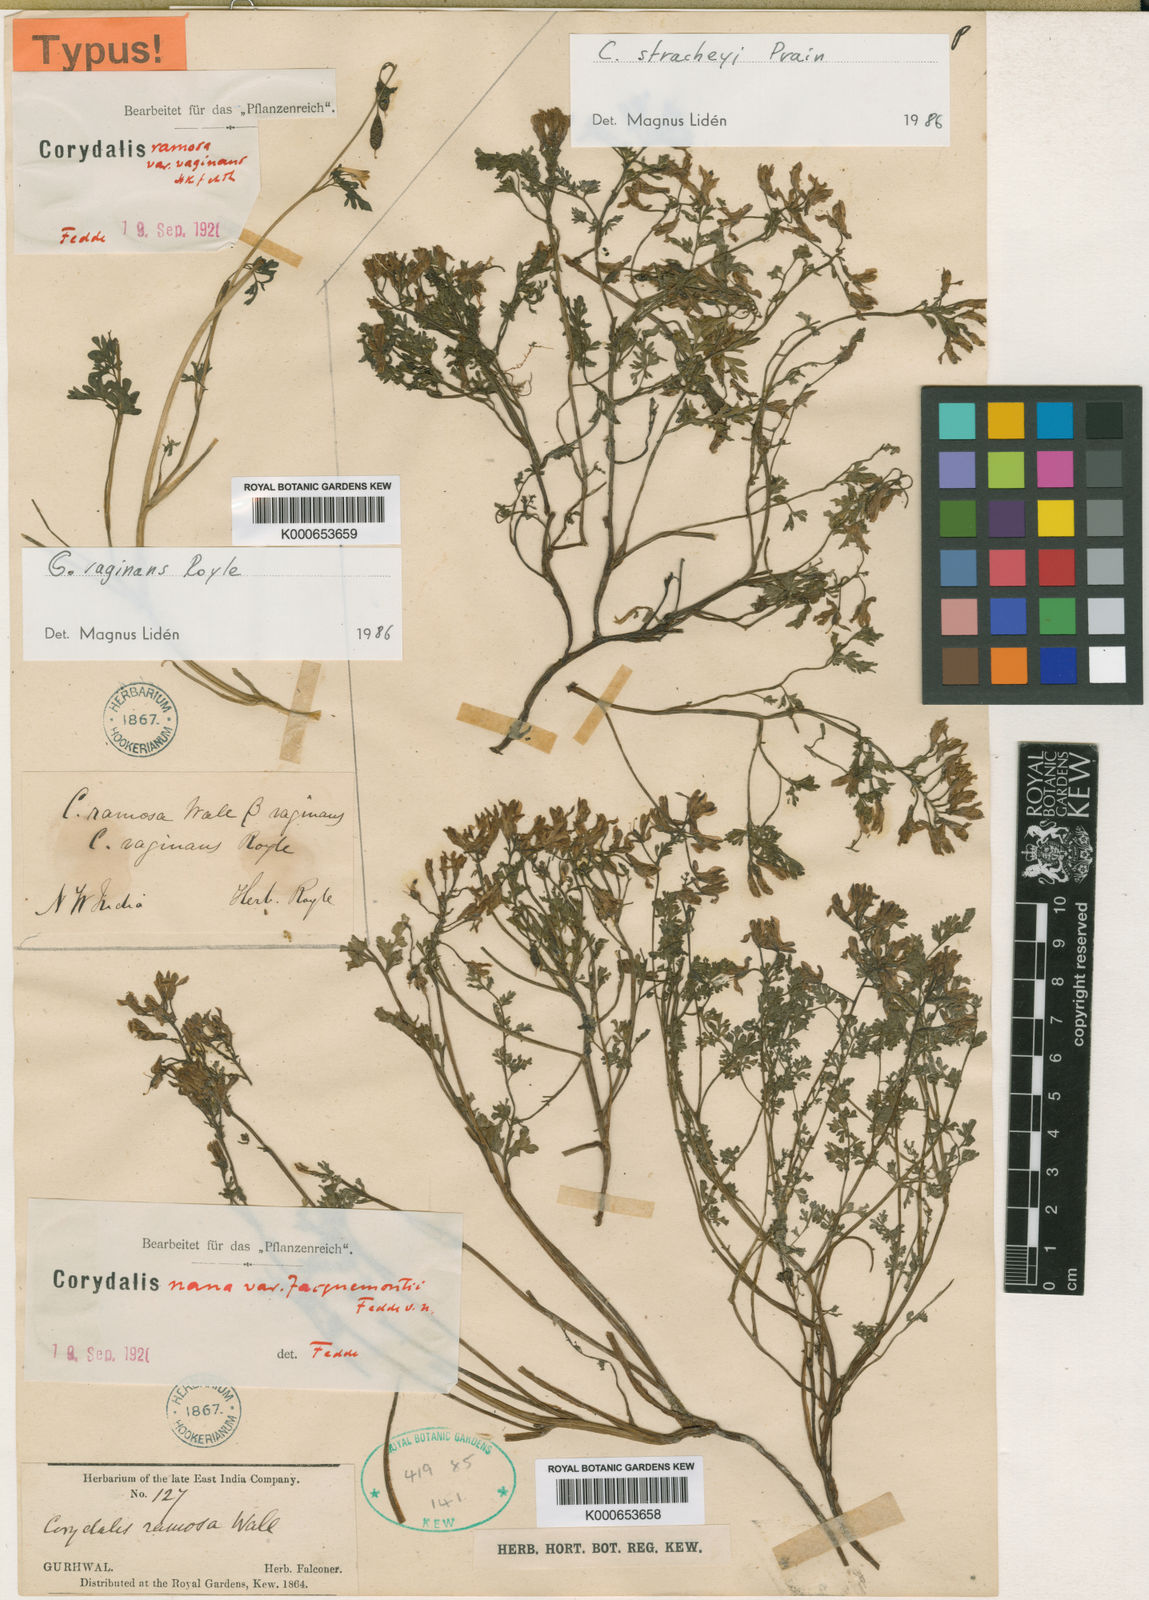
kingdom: Plantae
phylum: Tracheophyta
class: Magnoliopsida
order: Ranunculales
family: Papaveraceae
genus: Corydalis
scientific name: Corydalis vaginans
